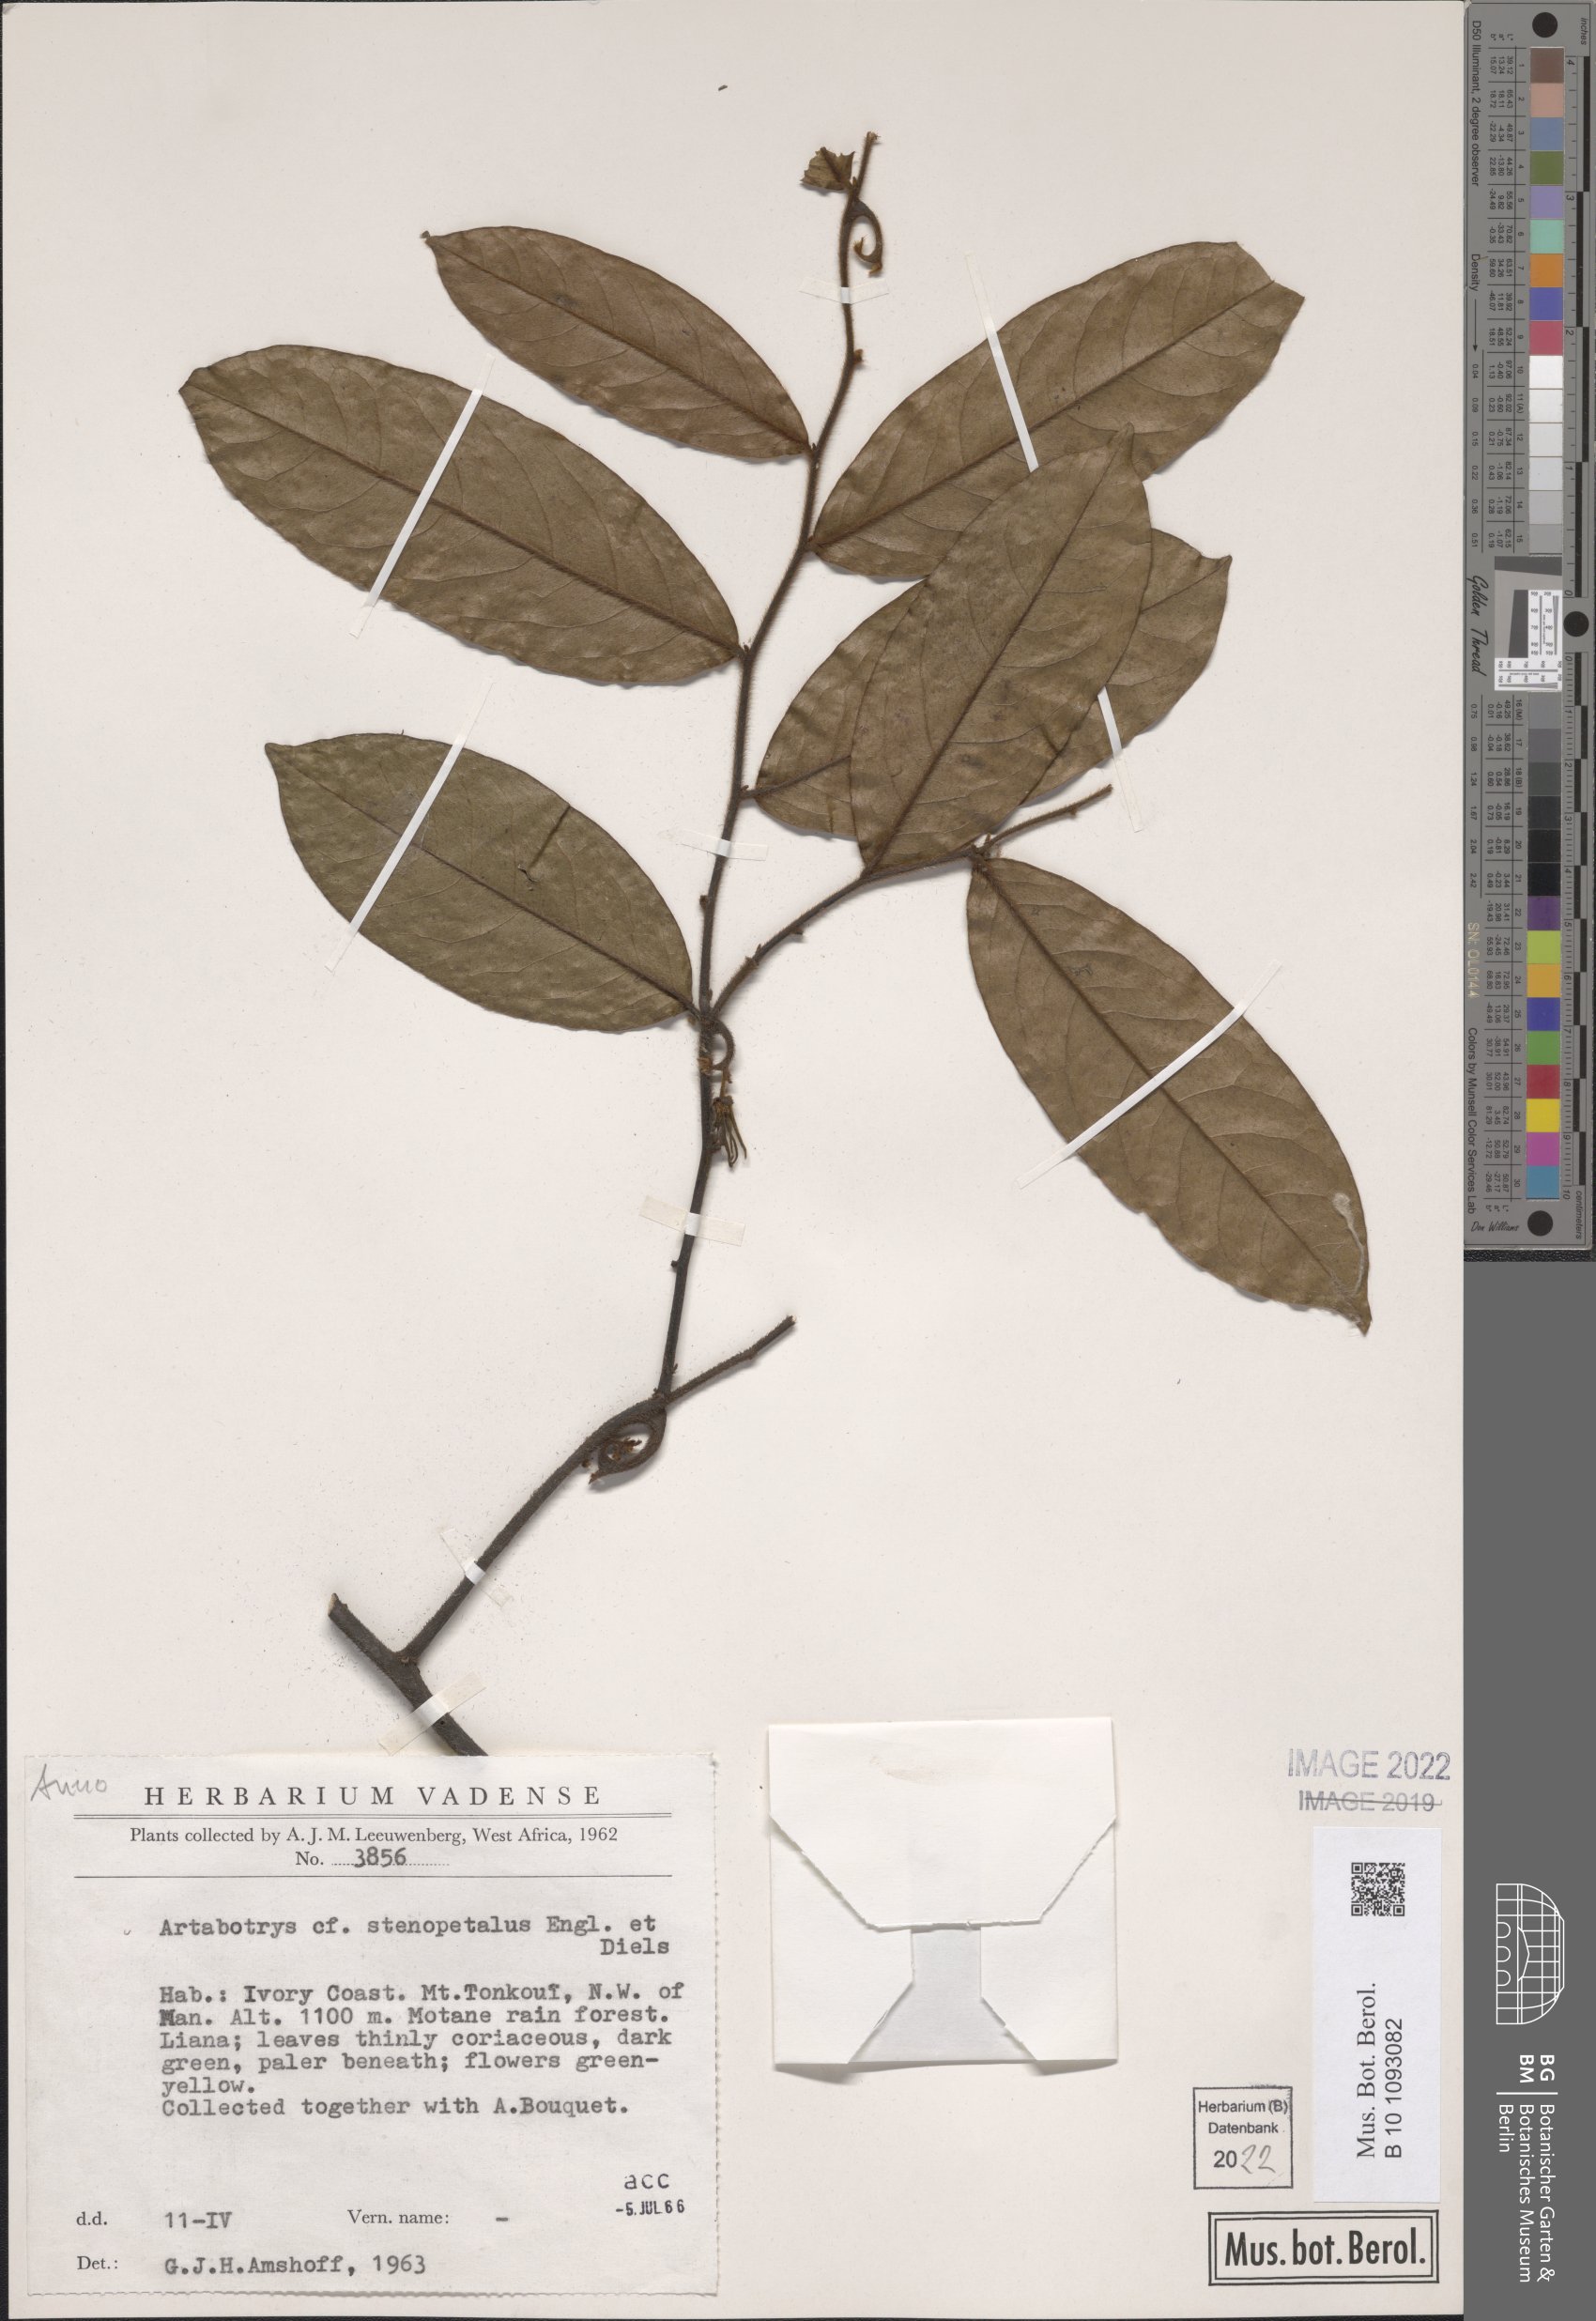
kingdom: Plantae
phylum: Tracheophyta
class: Magnoliopsida
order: Magnoliales
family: Annonaceae
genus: Artabotrys
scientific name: Artabotrys stenopetalus
